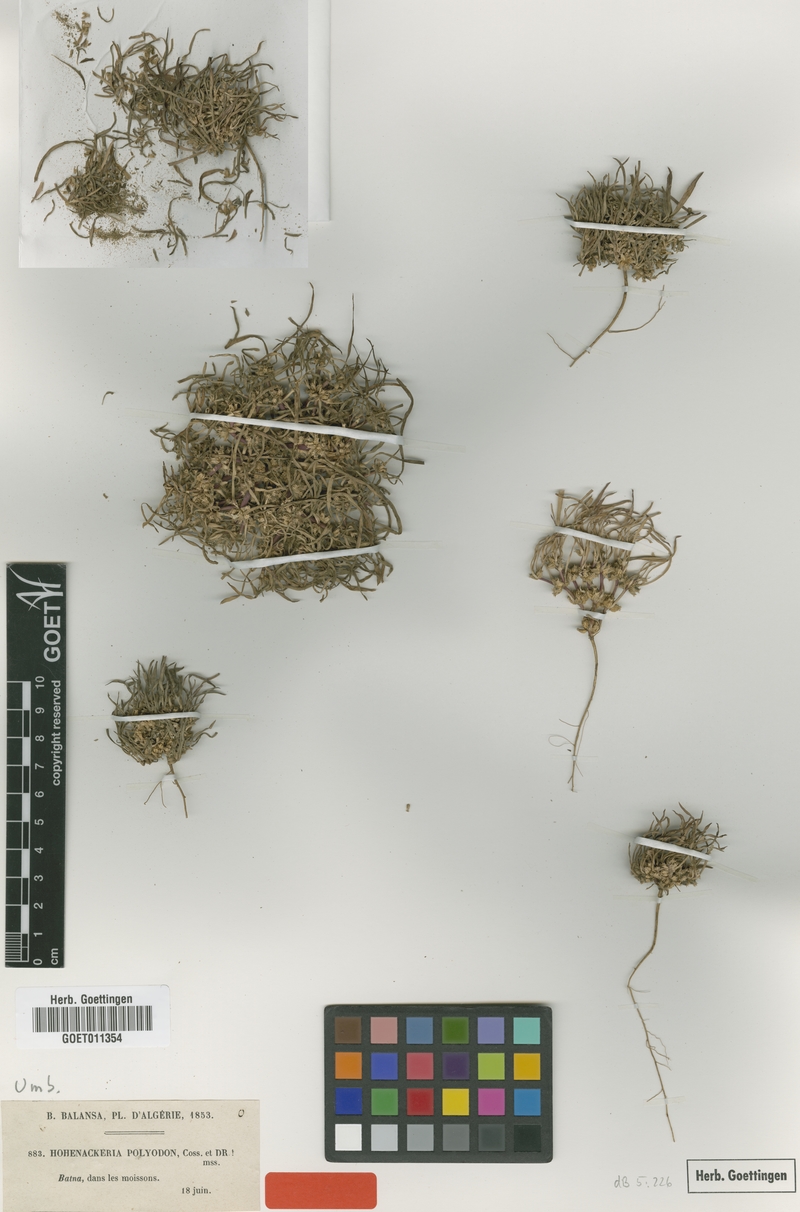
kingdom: Plantae
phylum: Tracheophyta
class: Magnoliopsida
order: Apiales
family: Apiaceae
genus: Hohenackeria
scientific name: Hohenackeria polyodon
